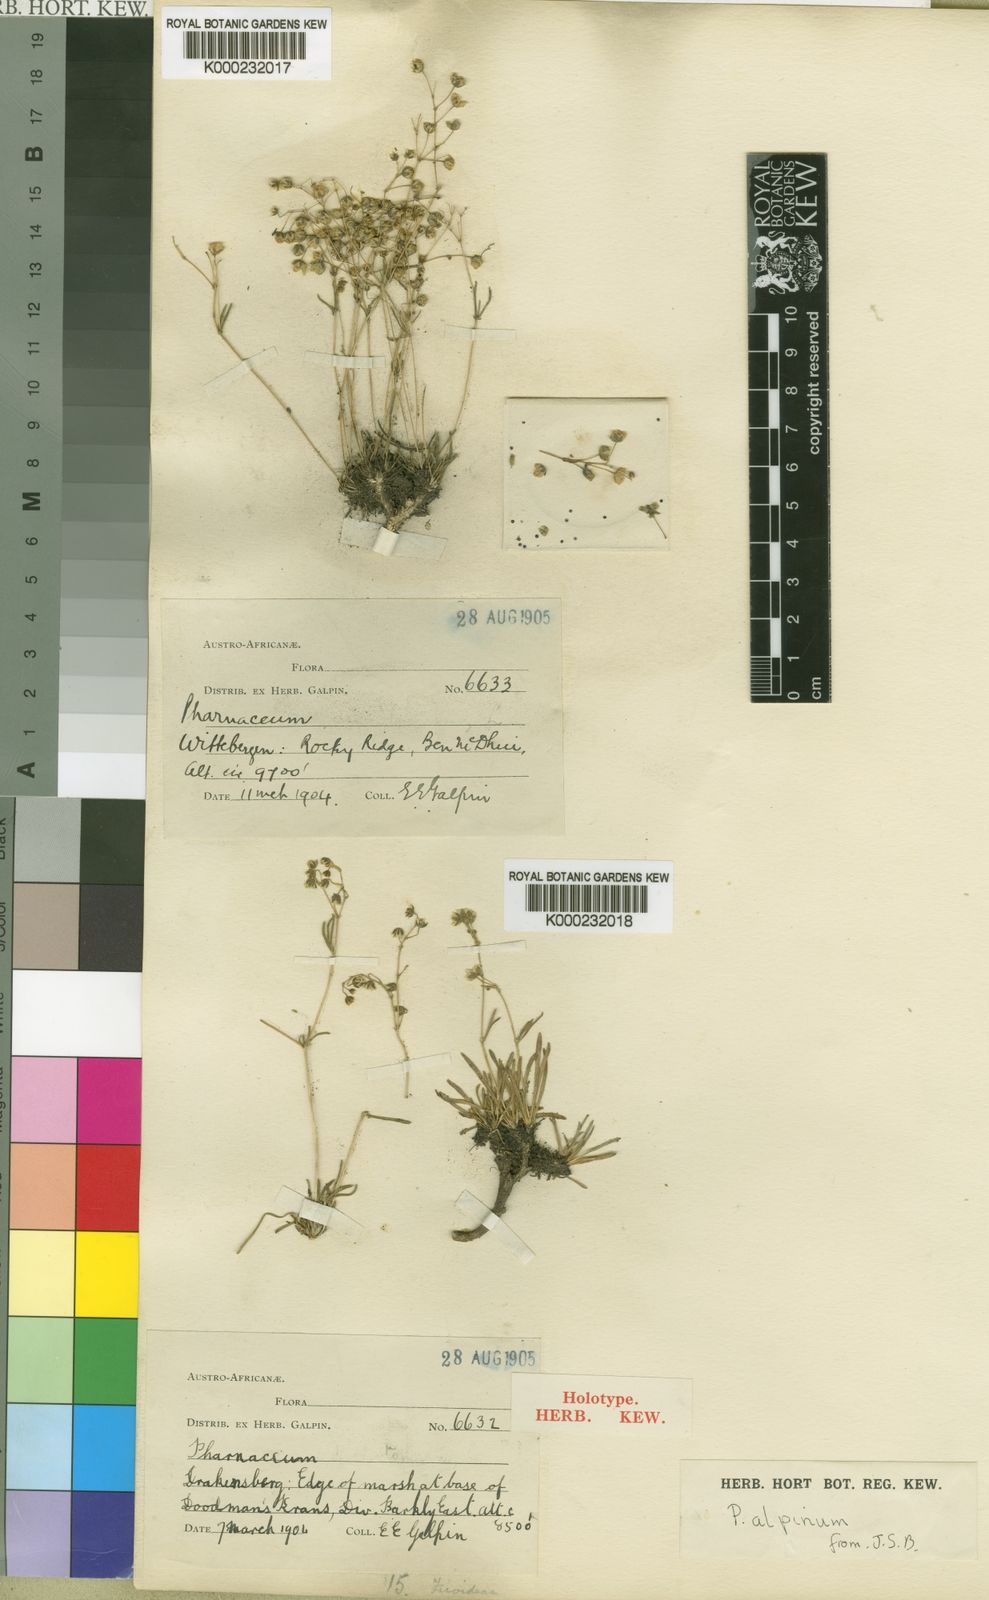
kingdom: Plantae
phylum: Tracheophyta
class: Magnoliopsida
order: Caryophyllales
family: Molluginaceae
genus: Pharnaceum
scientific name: Pharnaceum alpinum
